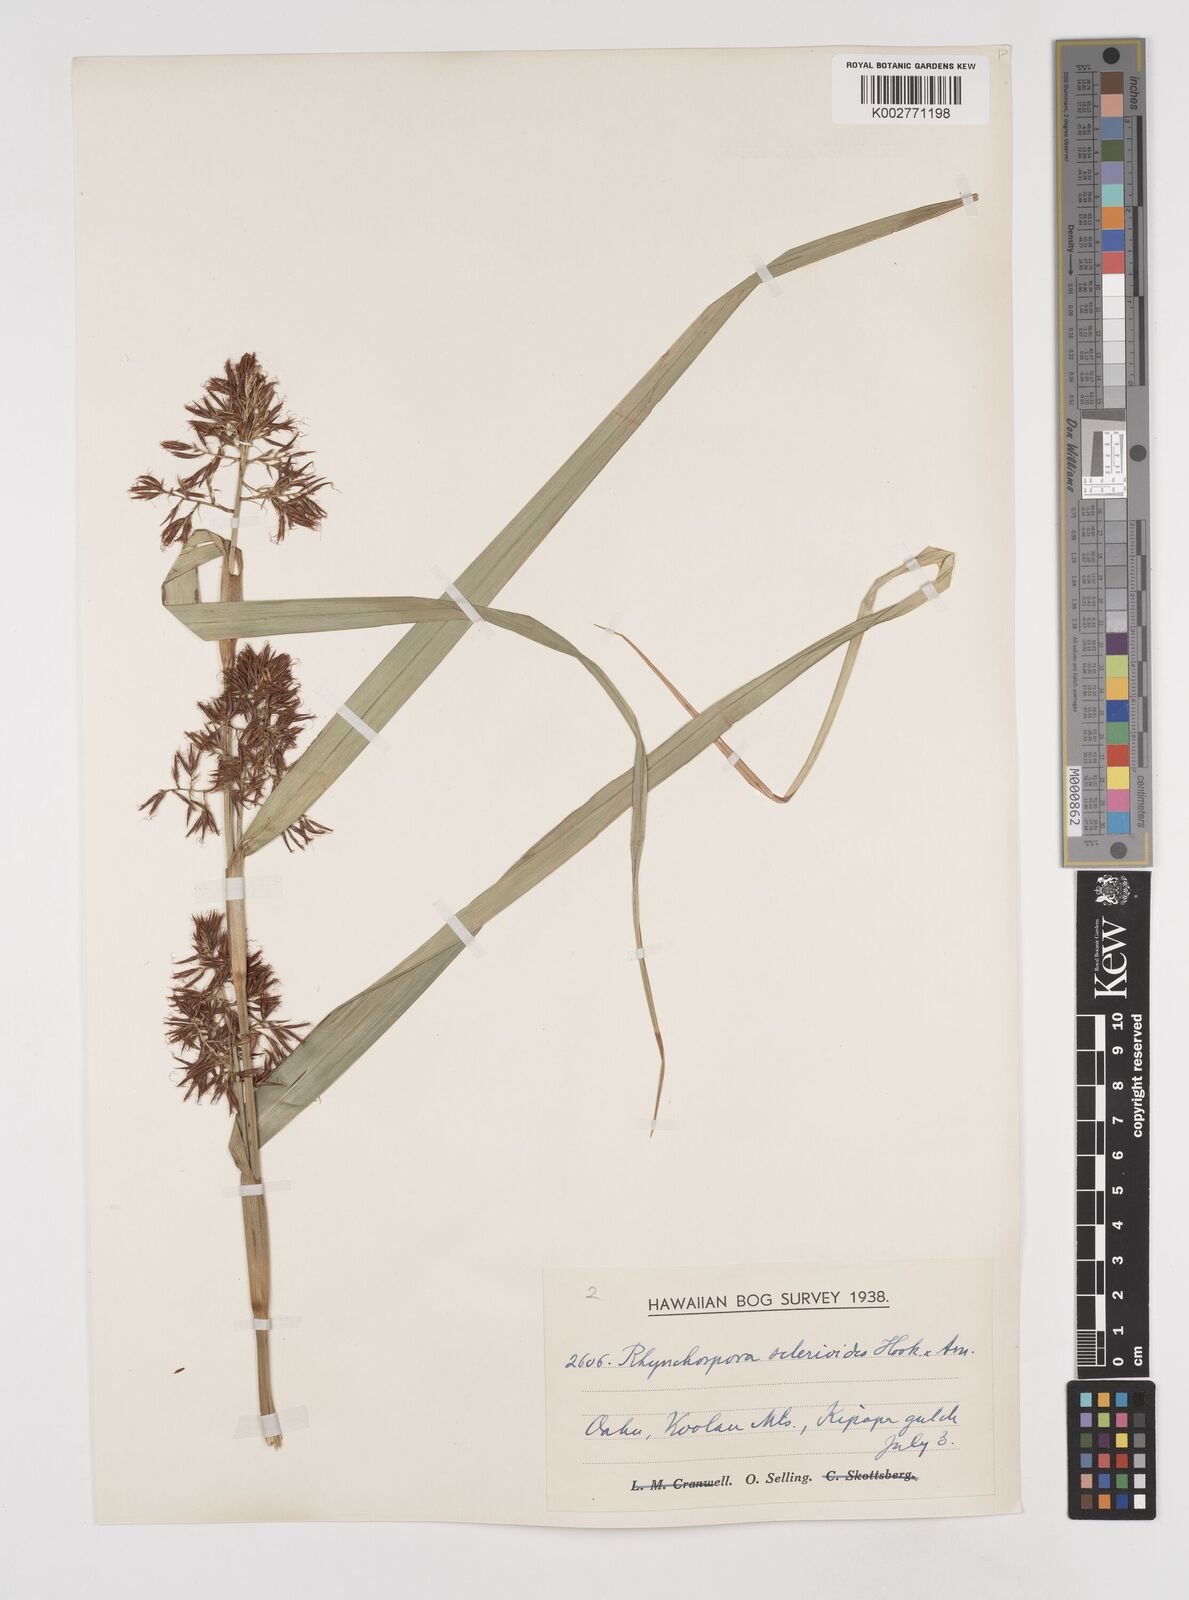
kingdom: Plantae
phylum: Tracheophyta
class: Liliopsida
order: Poales
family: Cyperaceae
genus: Rhynchospora
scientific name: Rhynchospora sclerioides
